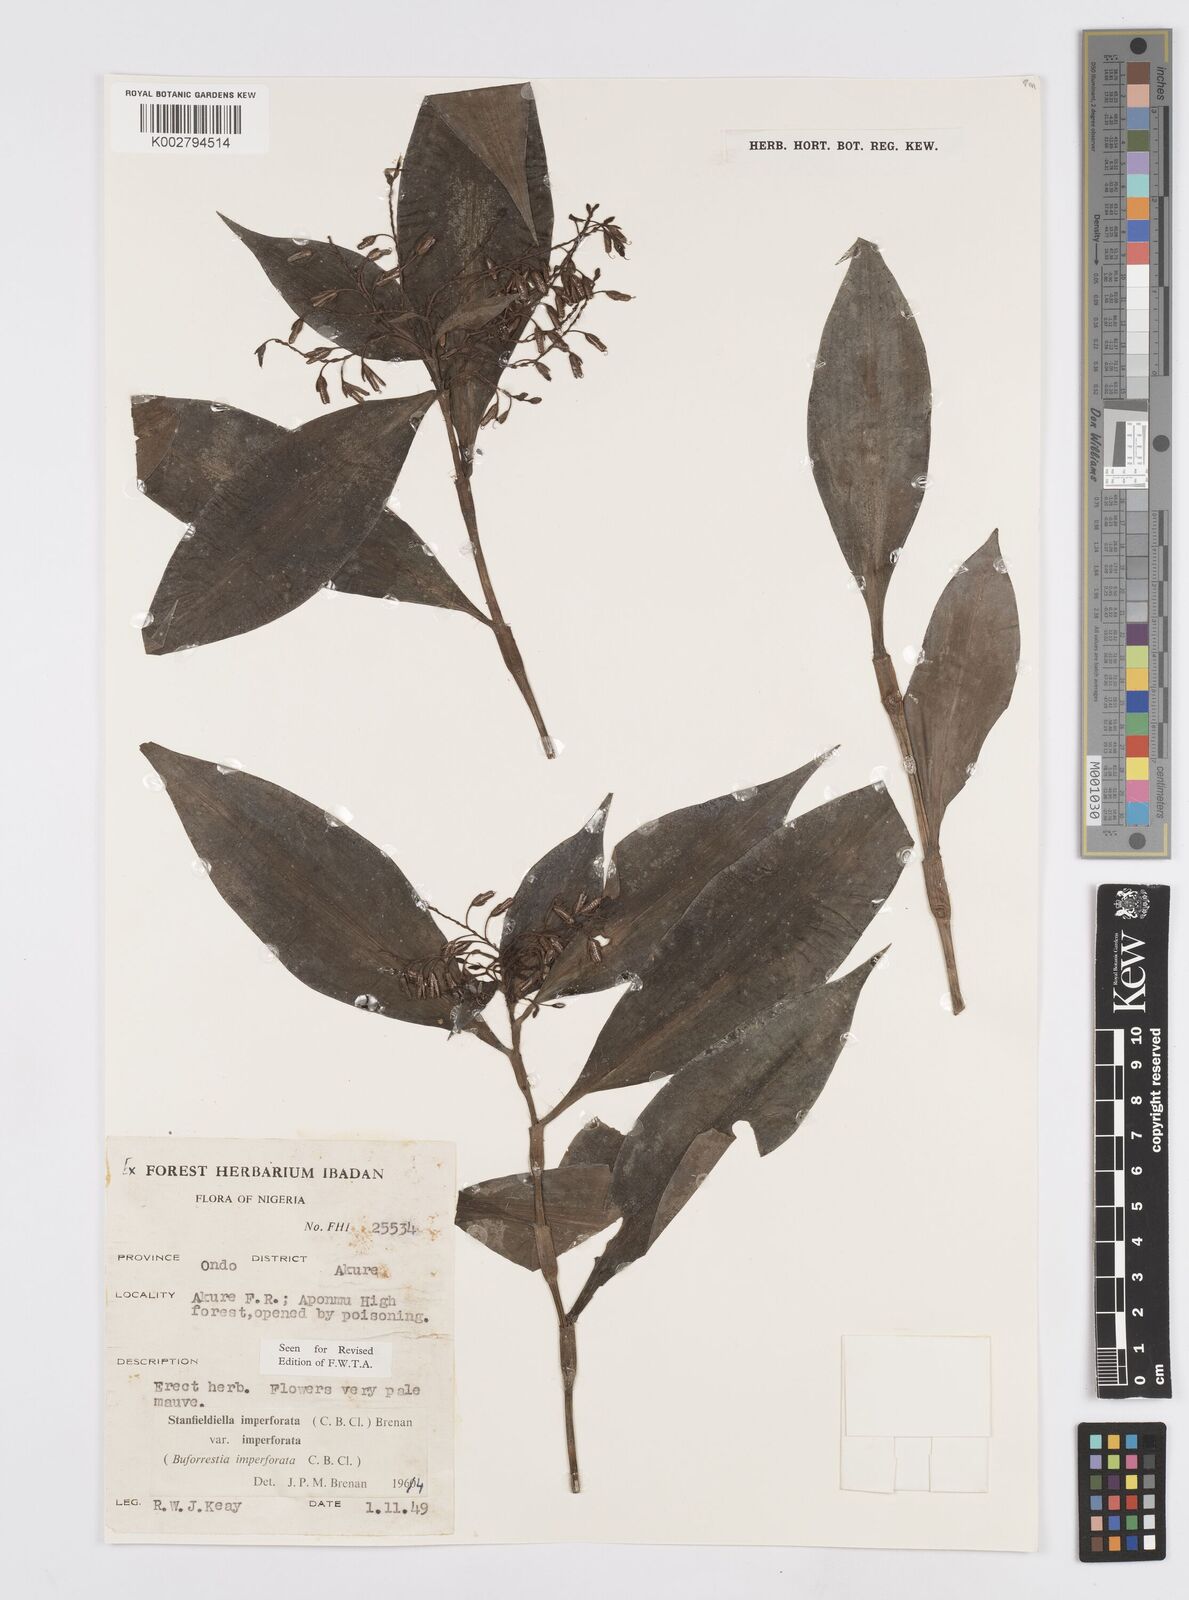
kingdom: Plantae
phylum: Tracheophyta
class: Liliopsida
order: Commelinales
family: Commelinaceae
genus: Stanfieldiella
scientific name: Stanfieldiella imperforata
